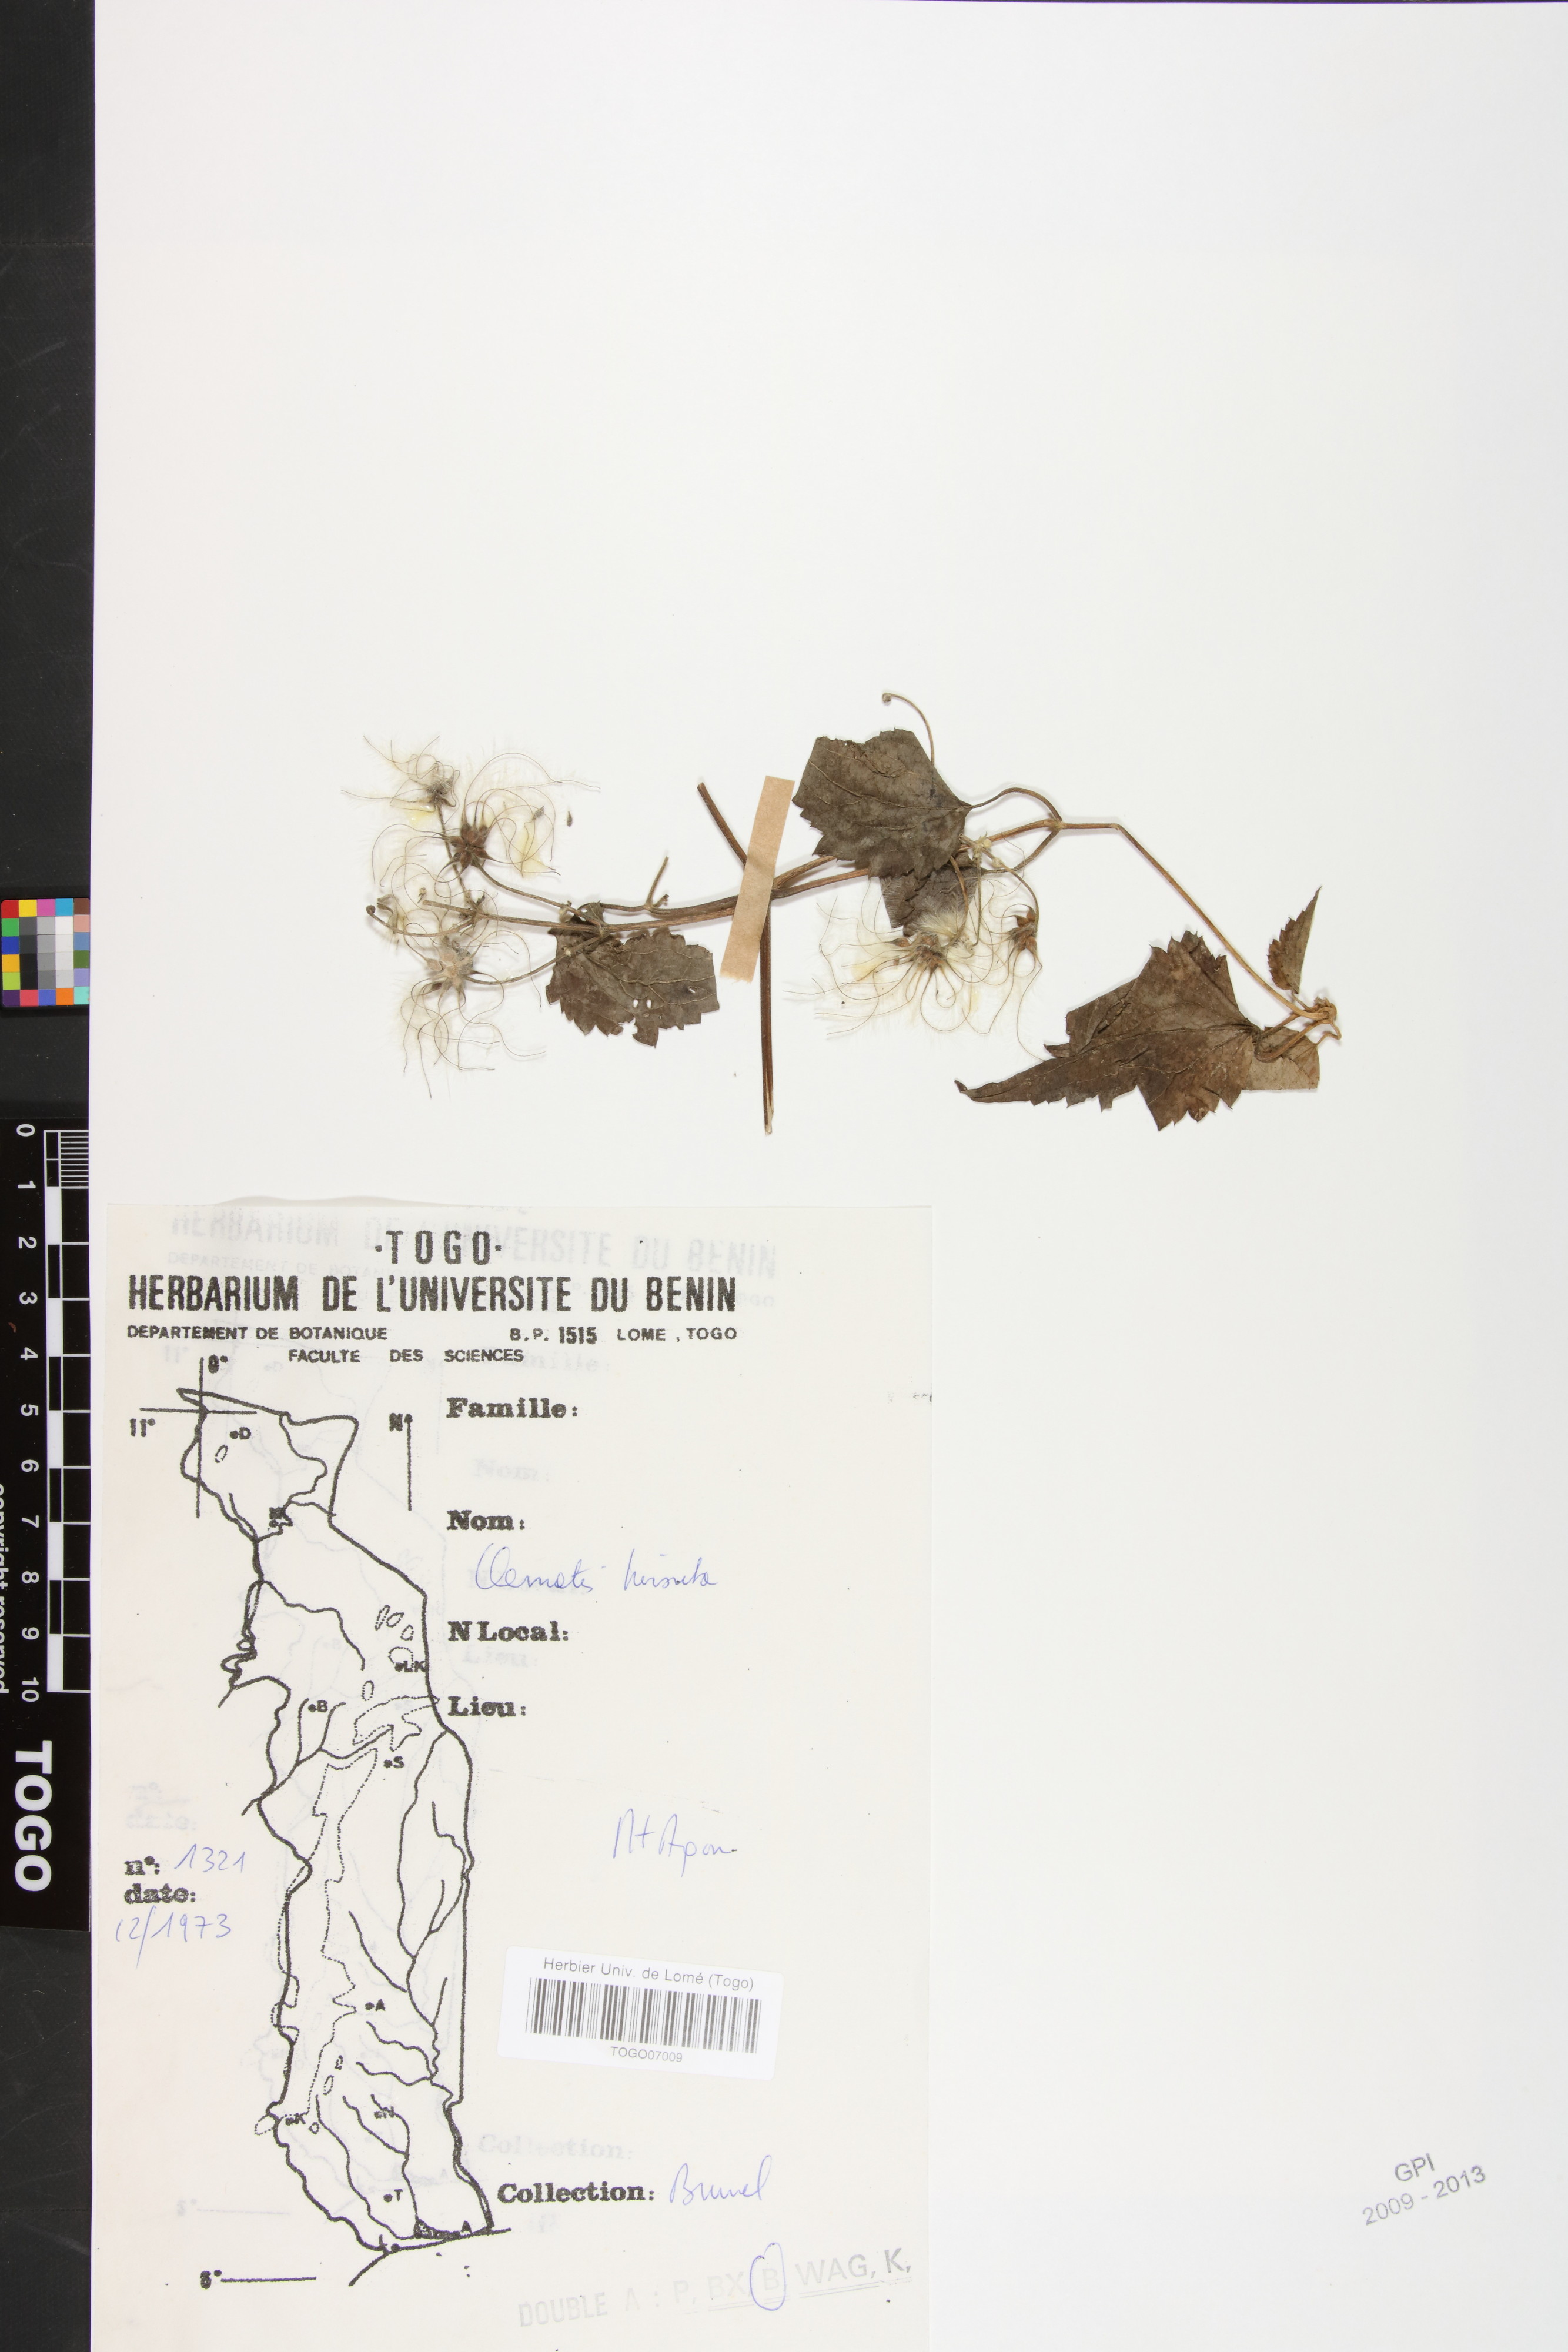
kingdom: Plantae
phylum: Tracheophyta
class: Magnoliopsida
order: Ranunculales
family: Ranunculaceae
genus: Clematis
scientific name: Clematis hirsuta
